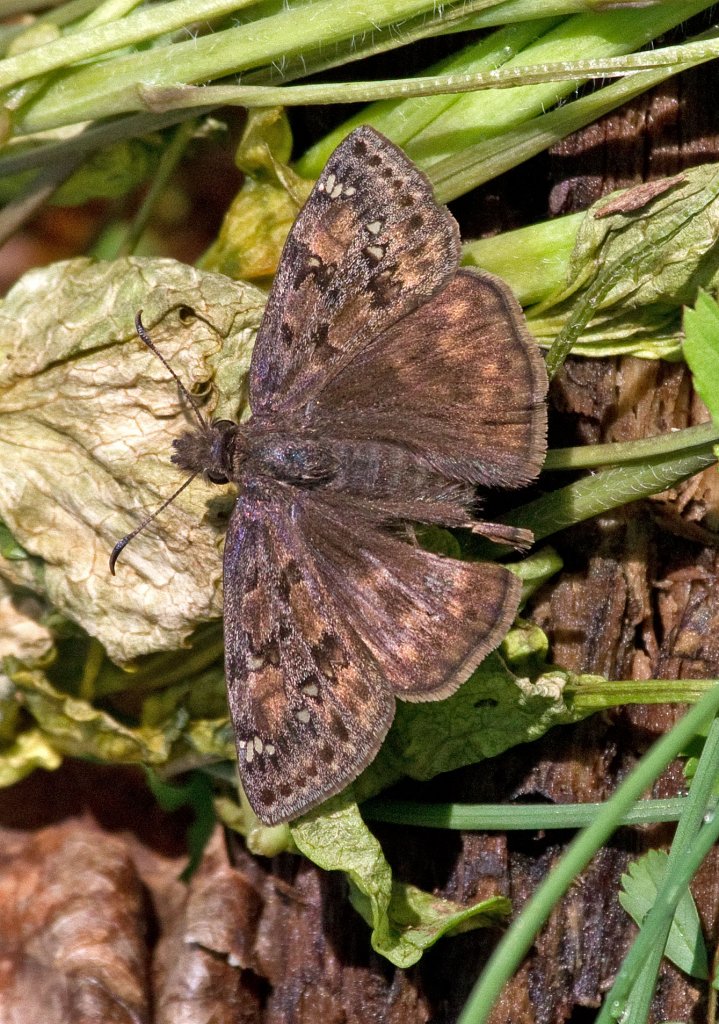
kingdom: Animalia
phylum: Arthropoda
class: Insecta
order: Lepidoptera
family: Hesperiidae
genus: Gesta
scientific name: Gesta
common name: Horace's Duskywing
